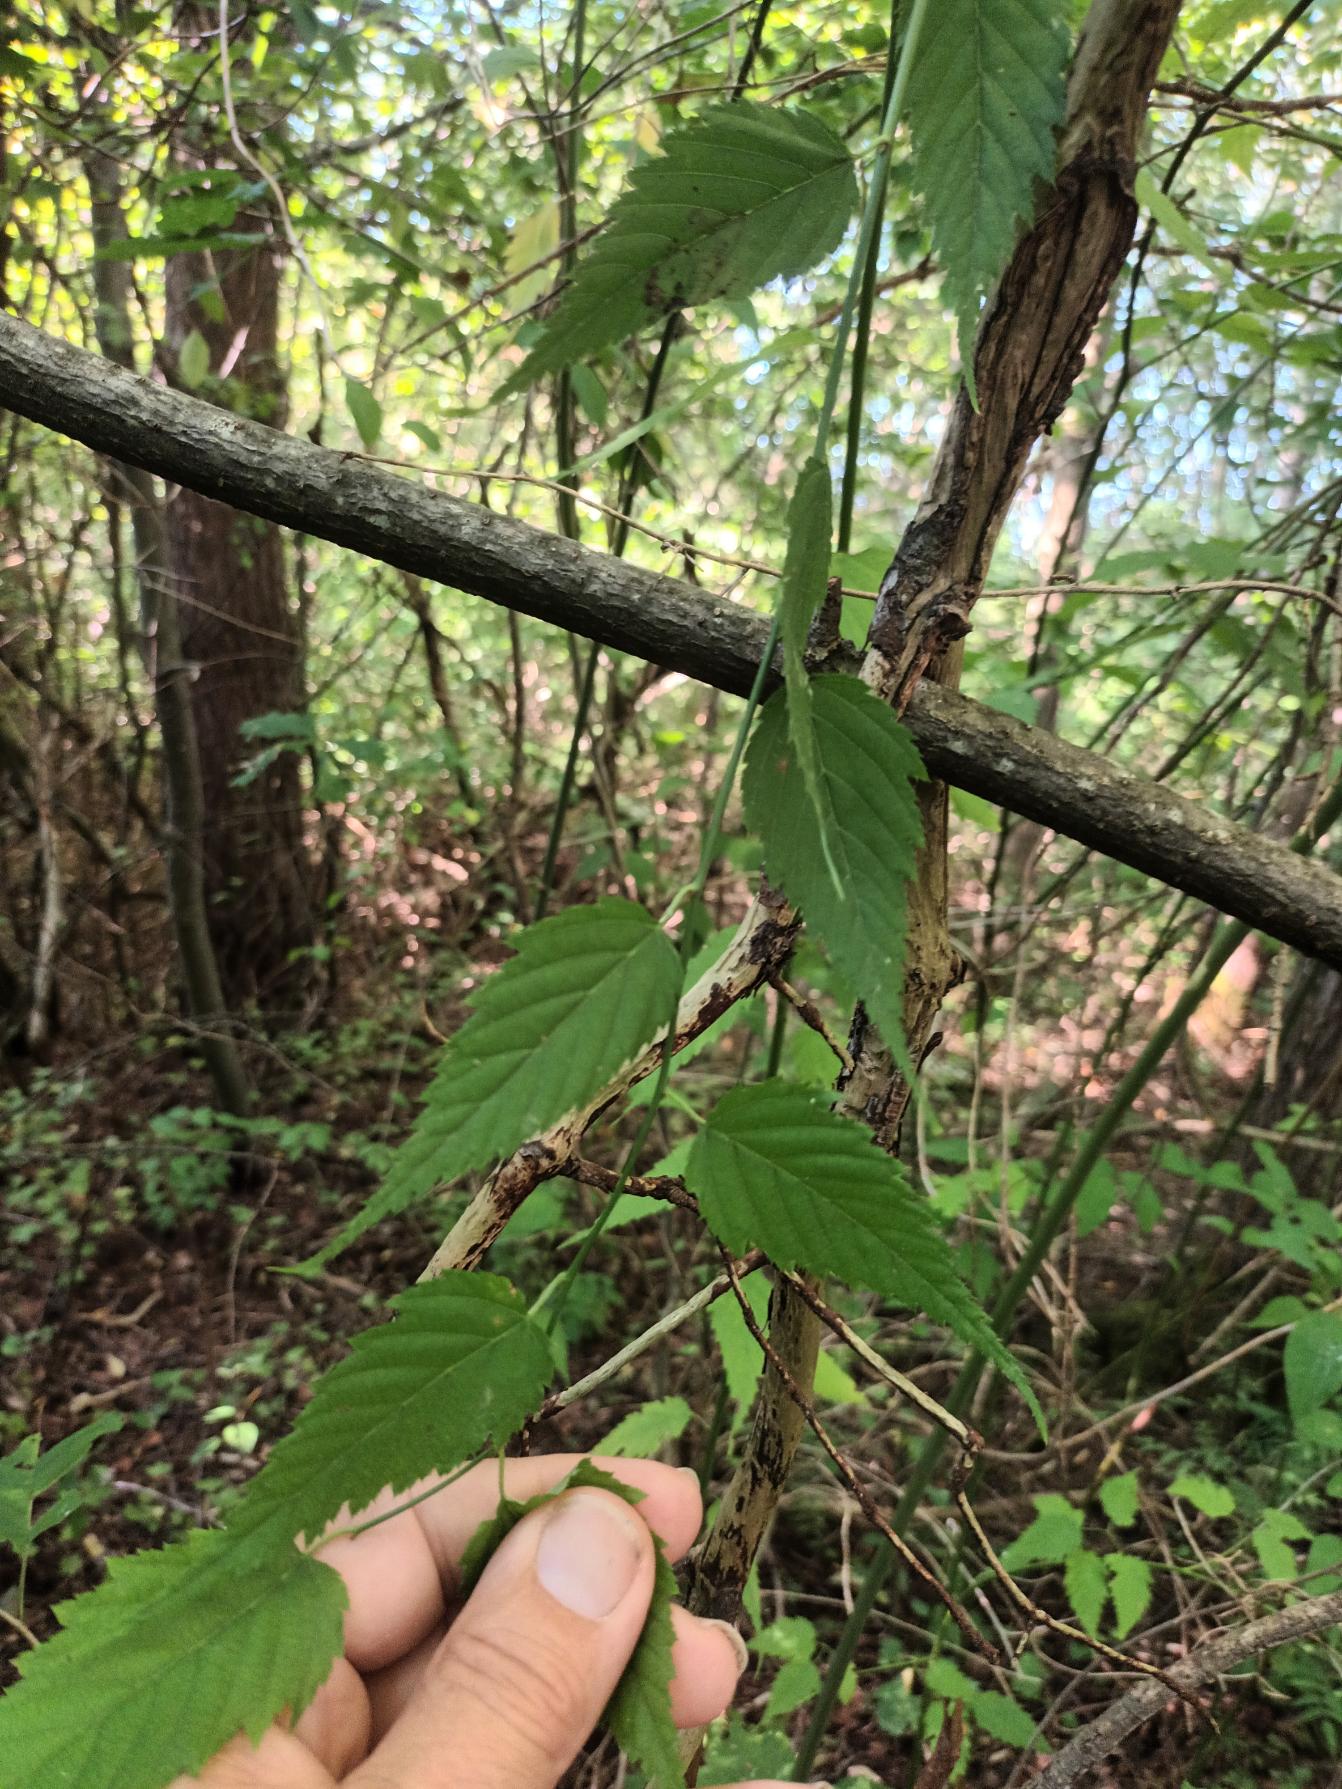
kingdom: Plantae
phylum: Tracheophyta
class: Magnoliopsida
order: Rosales
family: Rosaceae
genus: Kerria
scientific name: Kerria japonica
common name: Ranunkelbusk
